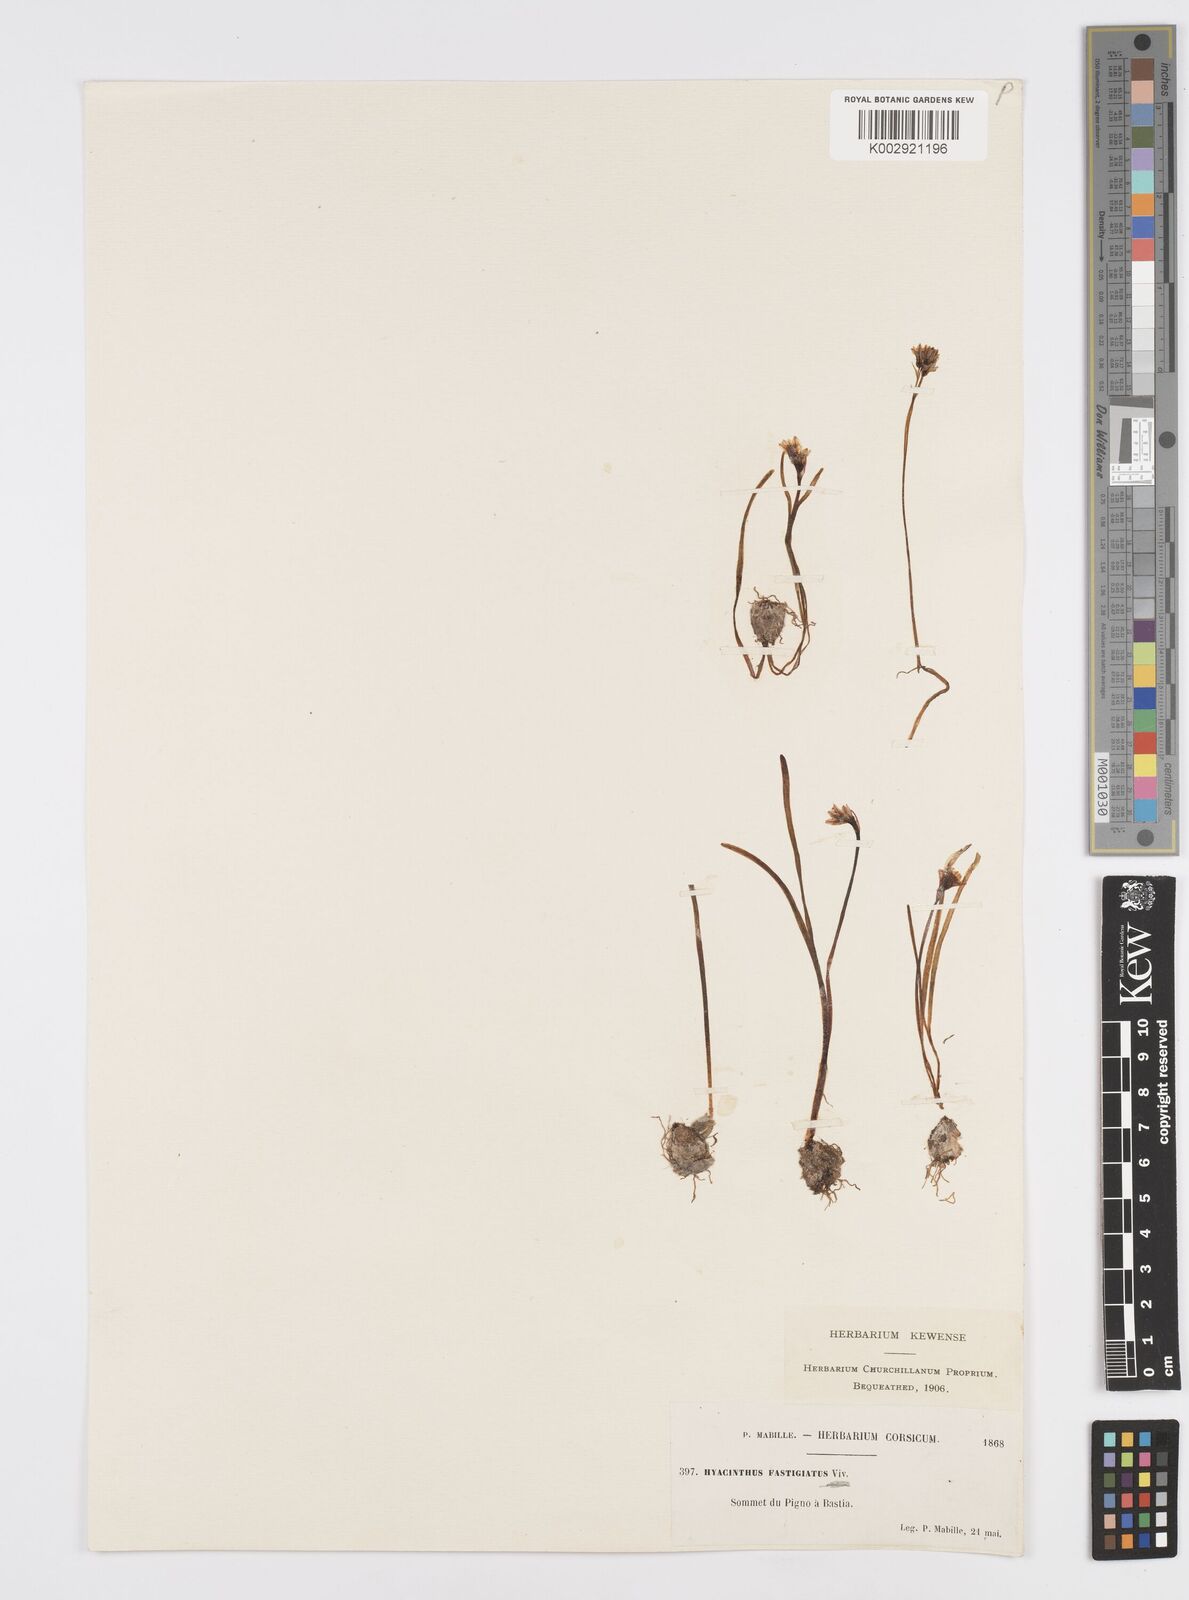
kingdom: Plantae
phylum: Tracheophyta
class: Liliopsida
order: Asparagales
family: Asparagaceae
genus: Brimeura
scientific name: Brimeura fastigiata
